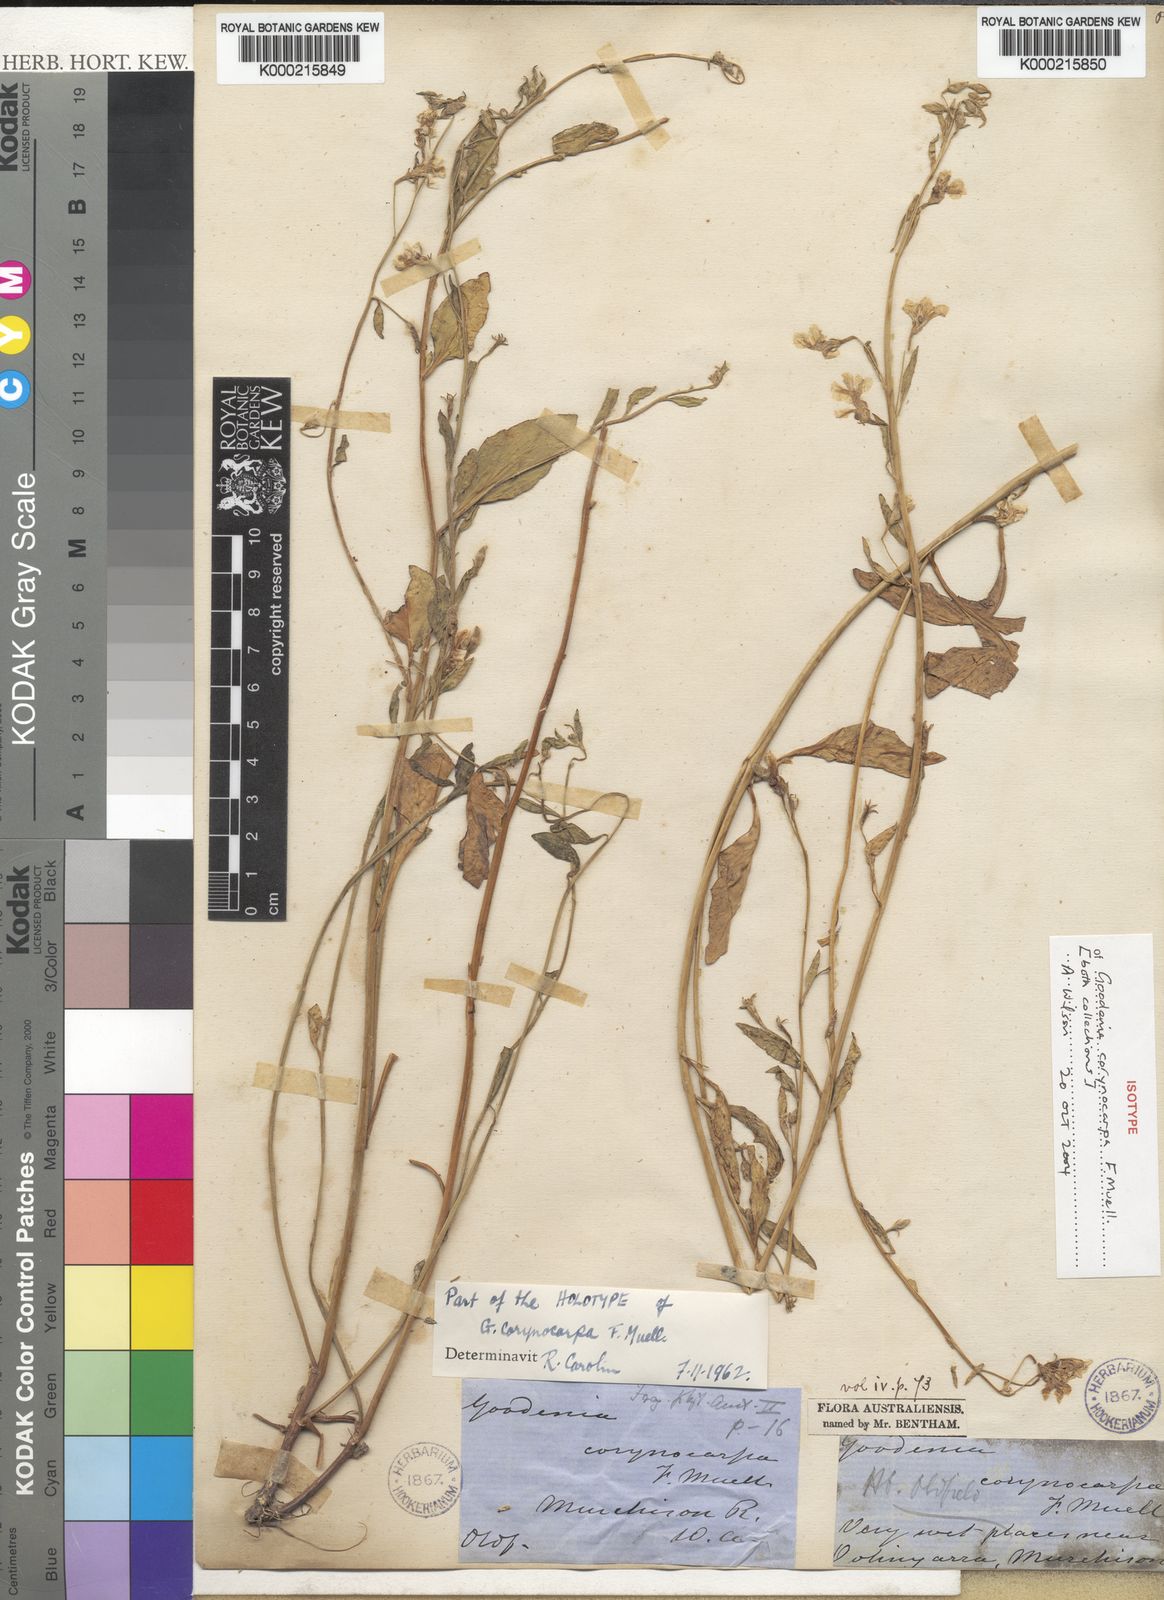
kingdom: Plantae
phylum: Tracheophyta
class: Magnoliopsida
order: Asterales
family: Goodeniaceae
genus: Goodenia
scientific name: Goodenia corynocarpa
